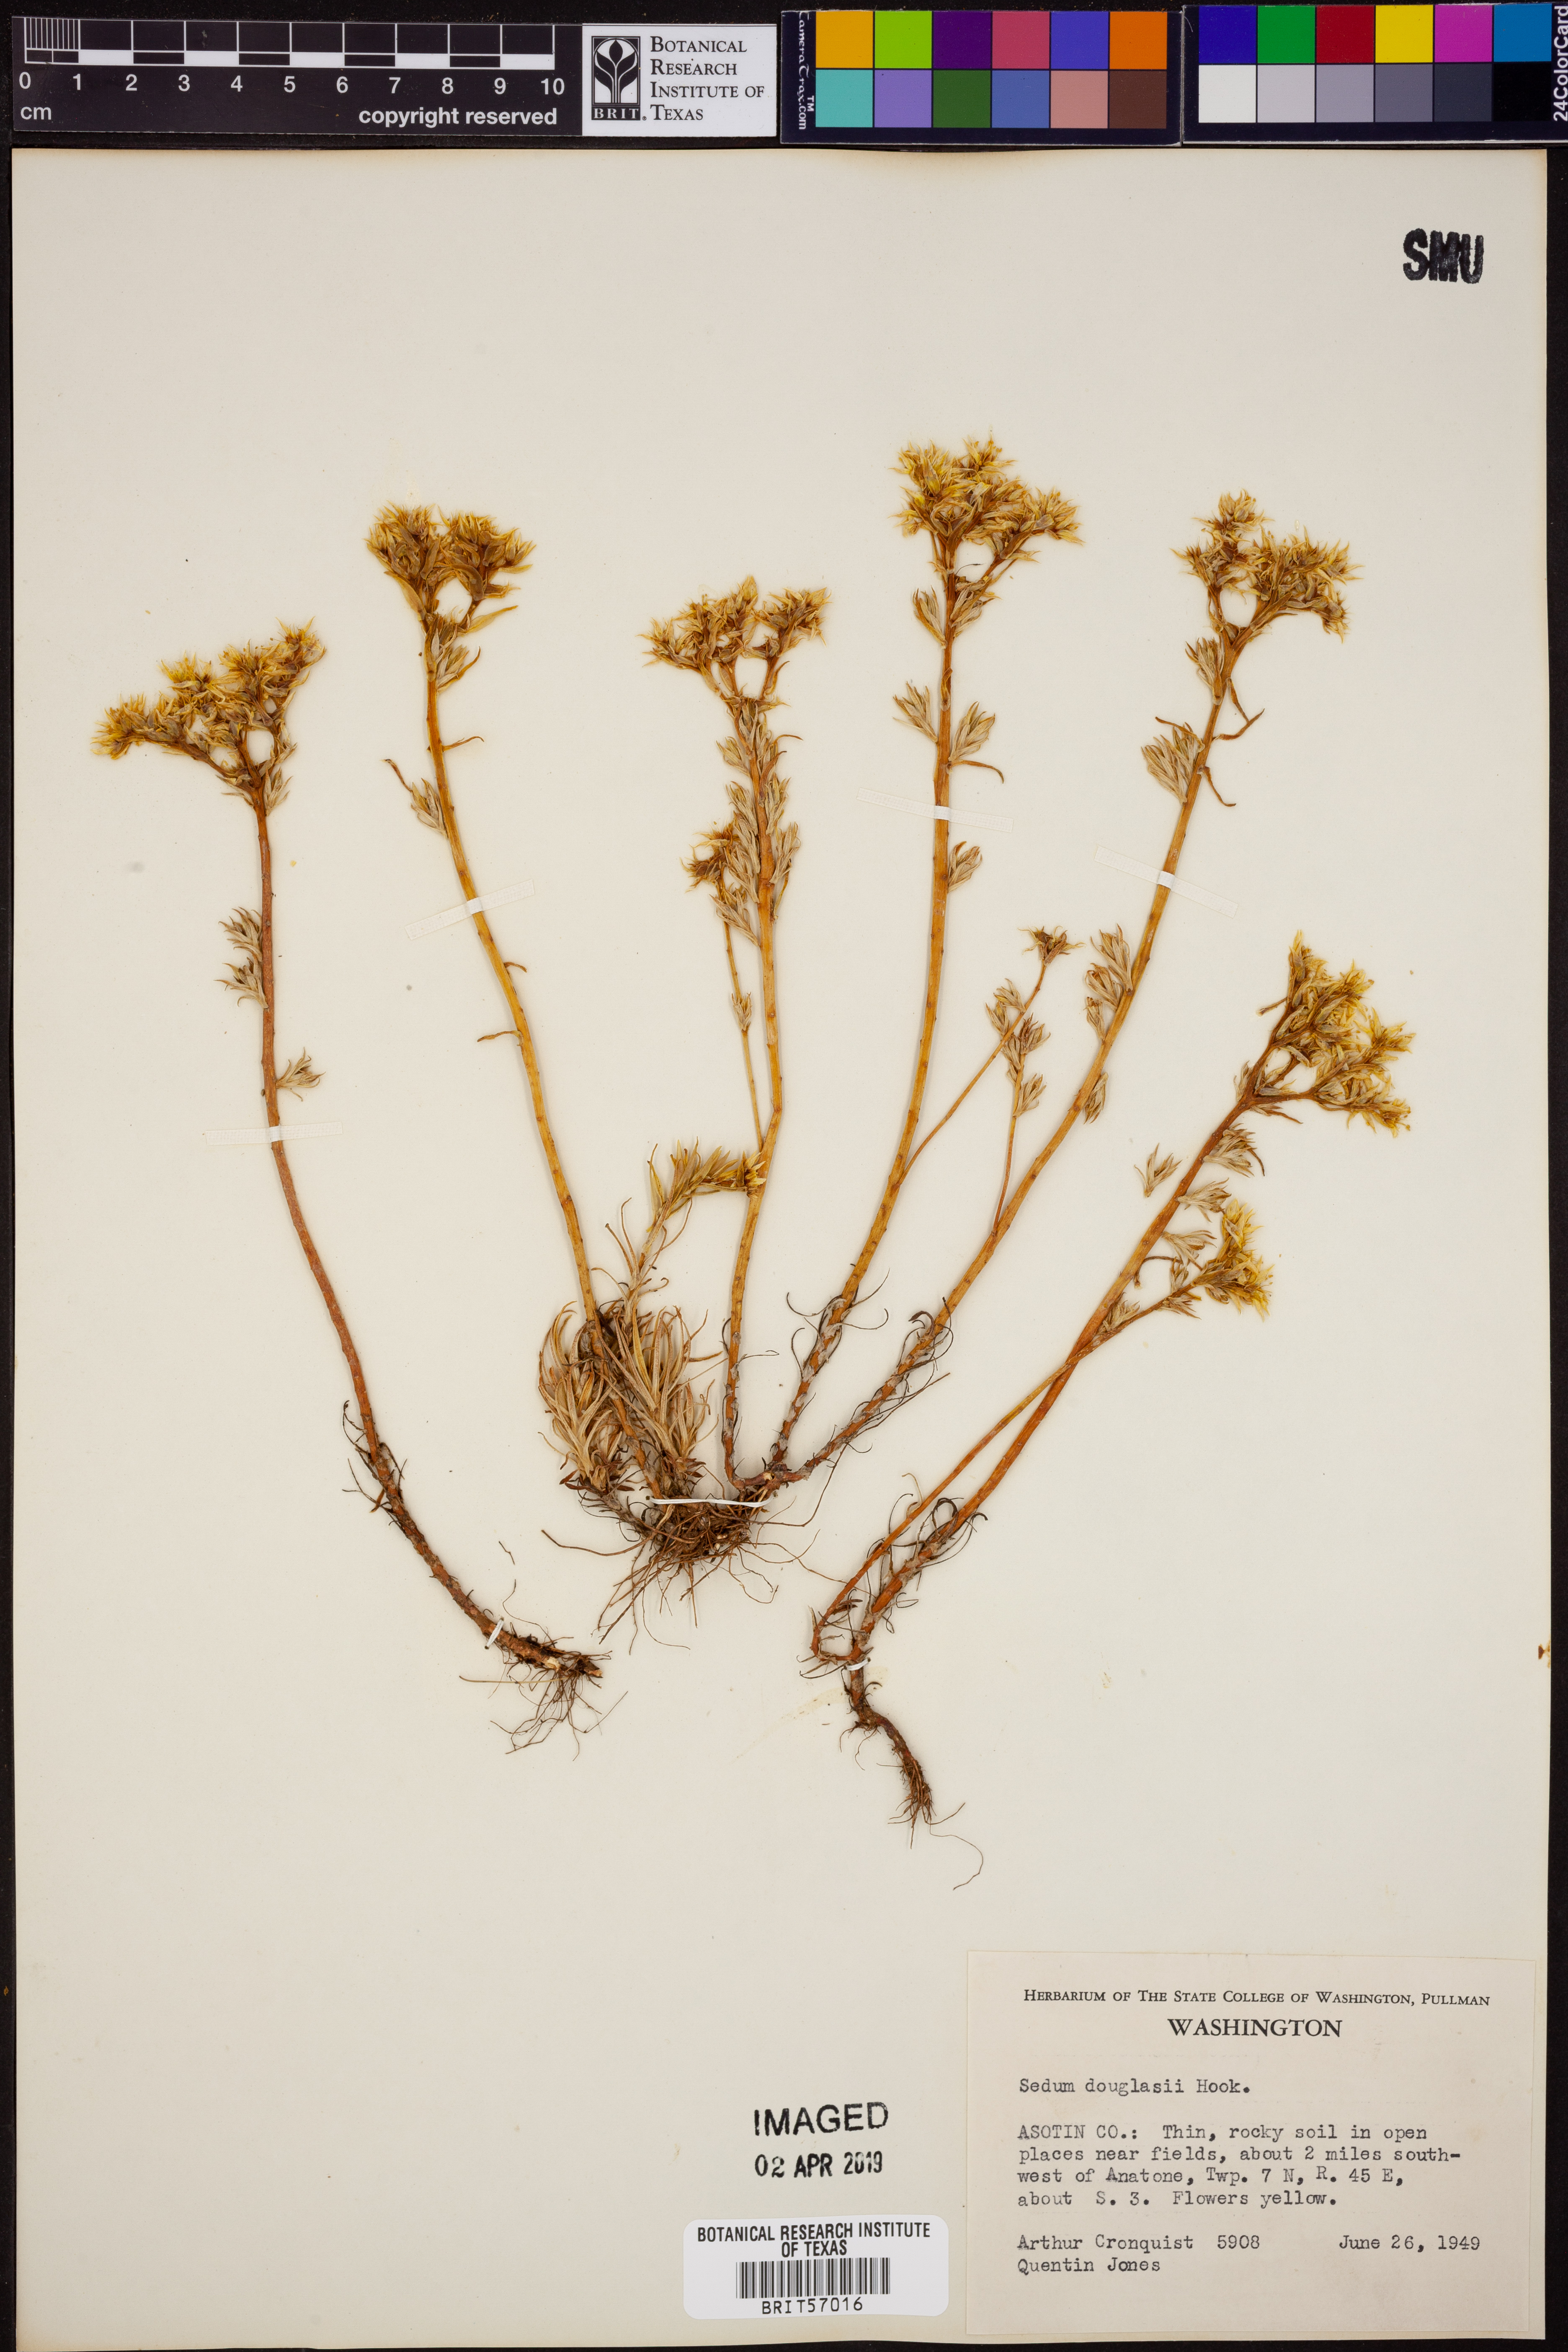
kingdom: Plantae
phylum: Tracheophyta
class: Magnoliopsida
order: Saxifragales
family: Crassulaceae
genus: Sedum
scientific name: Sedum stenopetalum
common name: Narrow-petaled stonecrop
